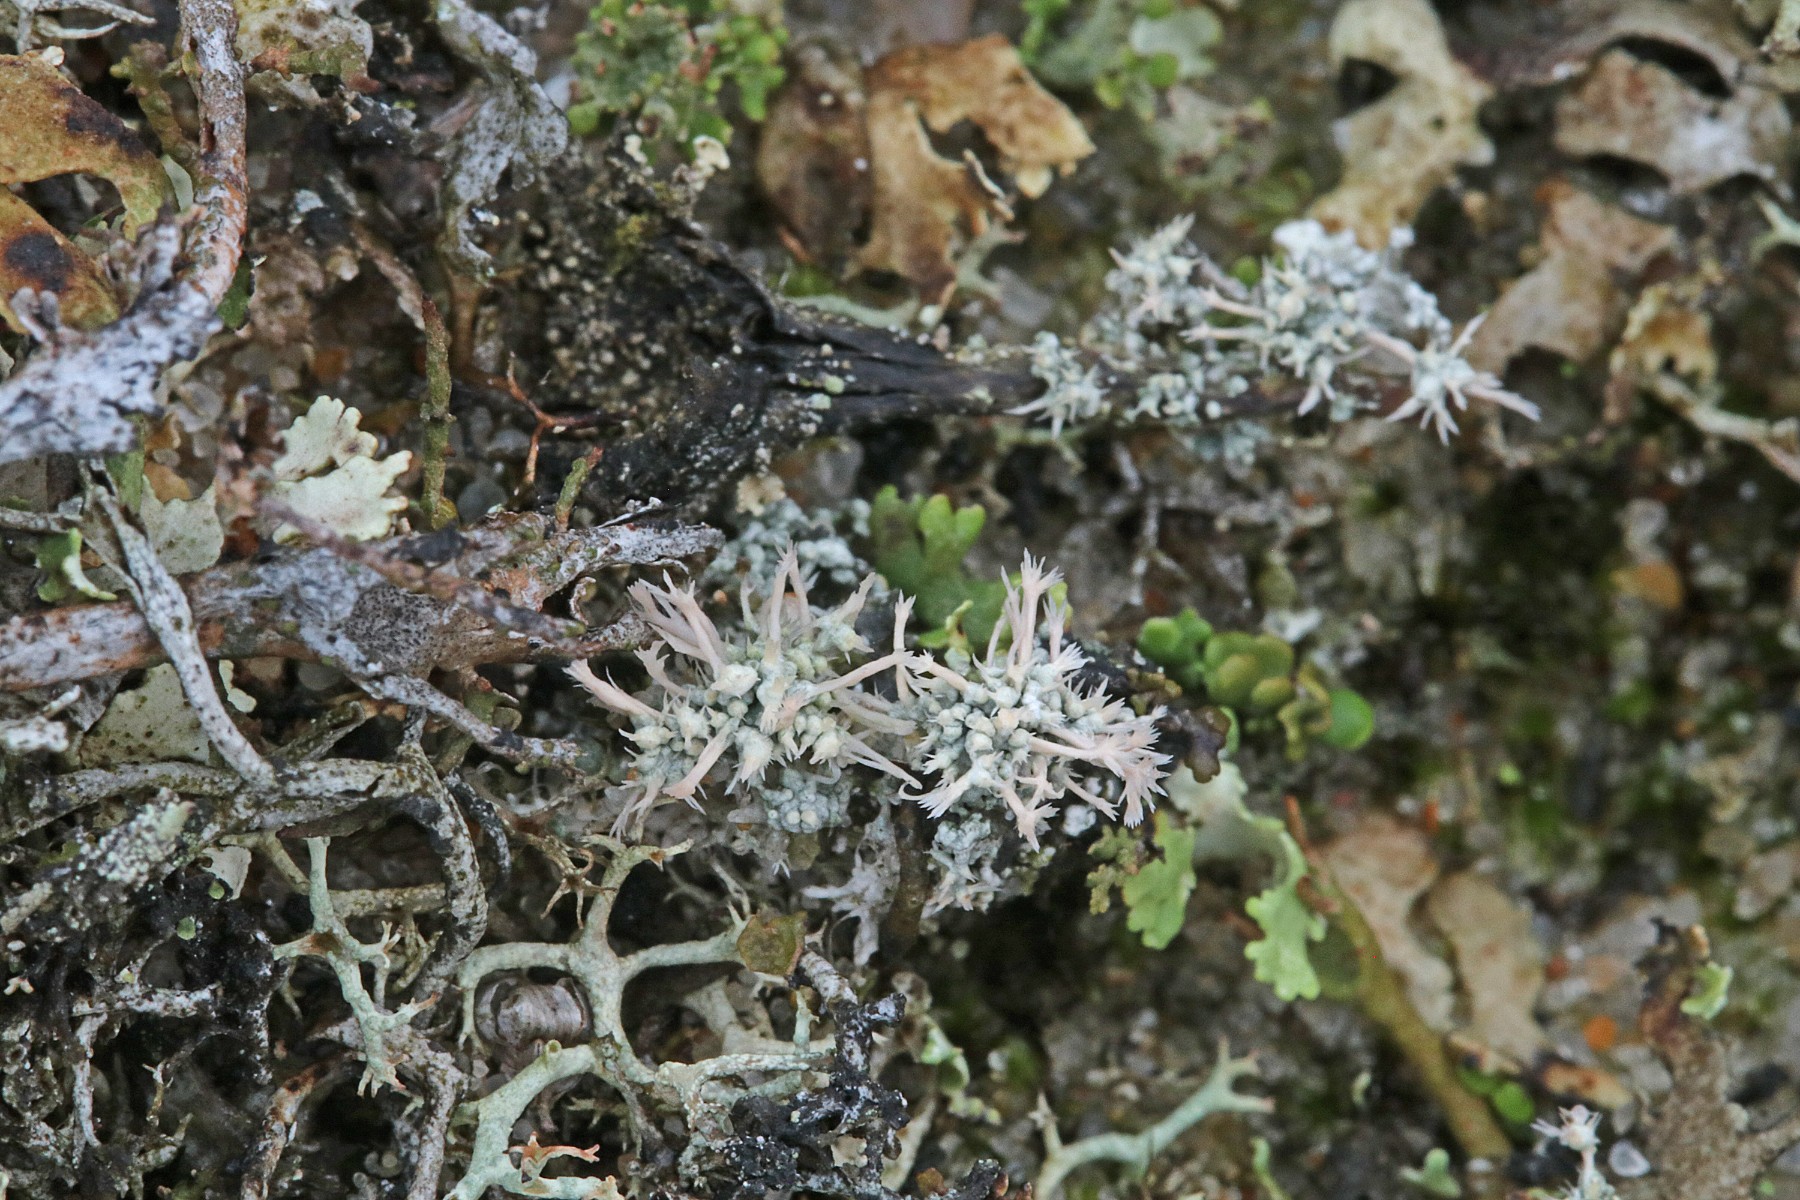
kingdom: Fungi
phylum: Ascomycota
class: Lecanoromycetes
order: Pertusariales
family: Ochrolechiaceae
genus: Ochrolechia
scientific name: Ochrolechia frigida
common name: fjeld-blegskivelav
